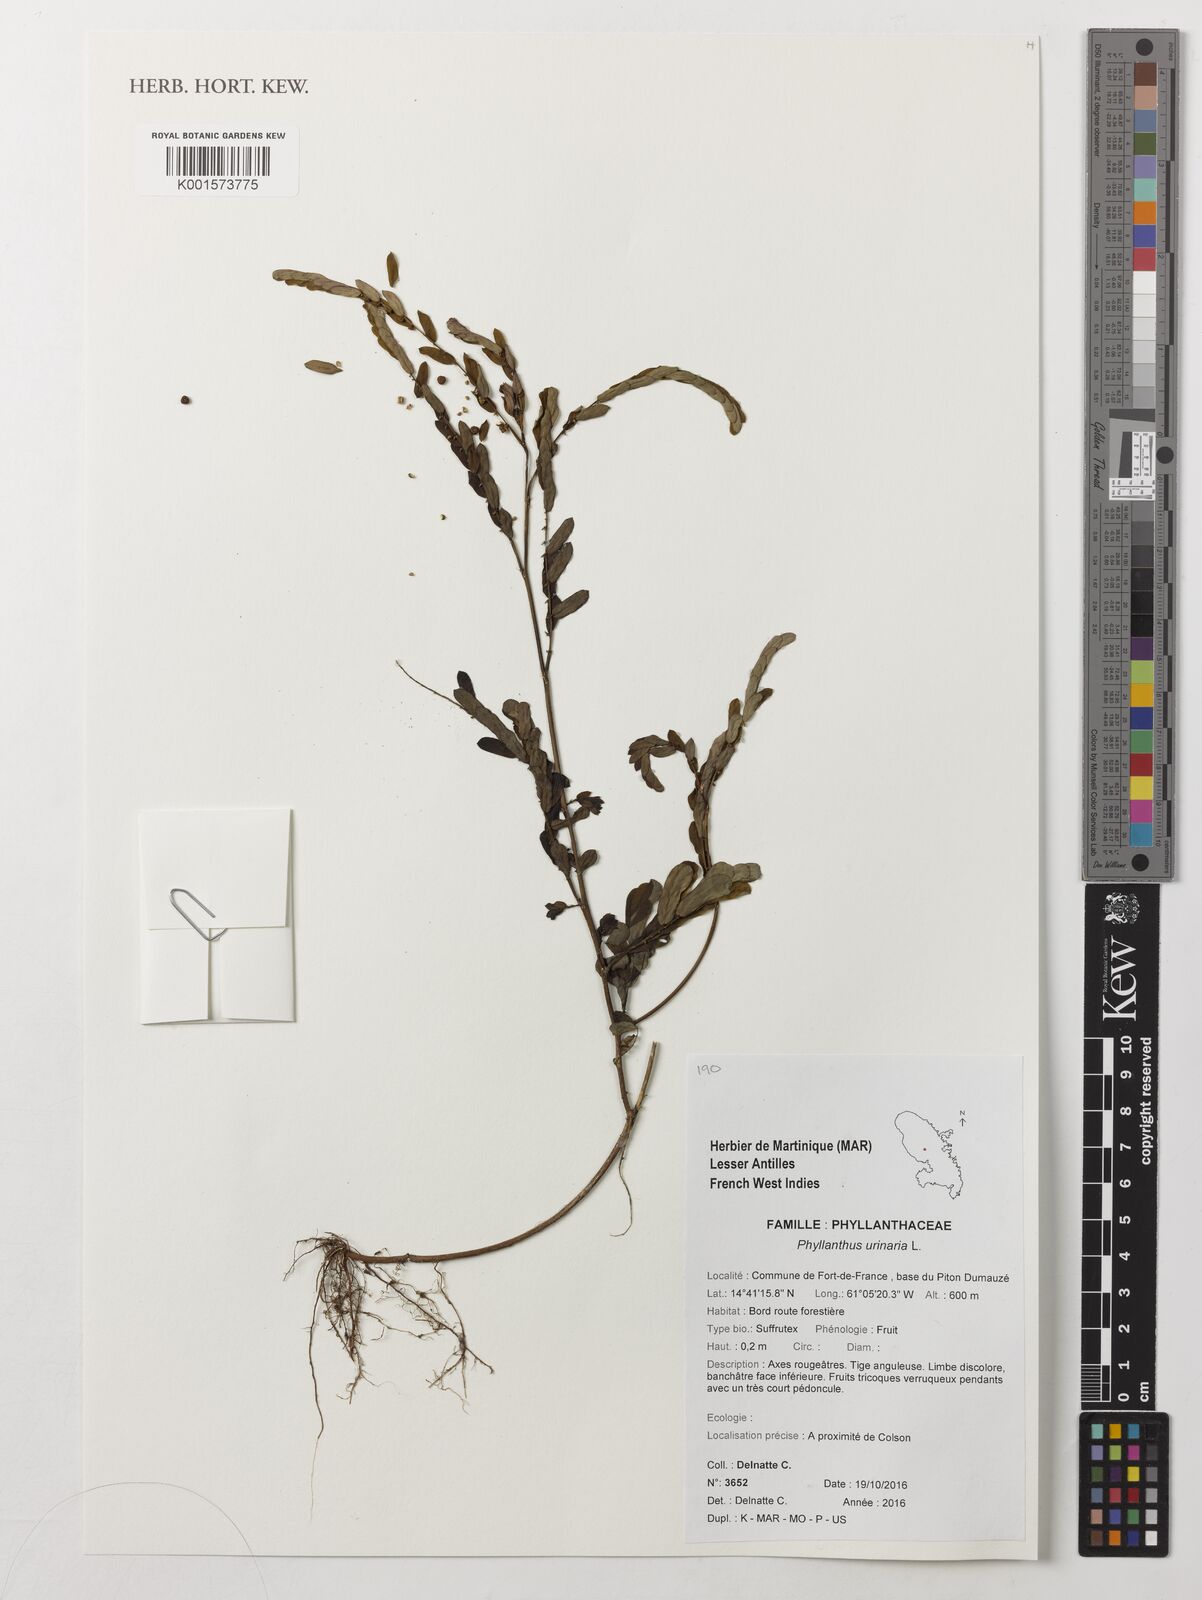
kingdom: Plantae
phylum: Tracheophyta
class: Magnoliopsida
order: Malpighiales
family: Phyllanthaceae
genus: Phyllanthus
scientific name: Phyllanthus urinaria
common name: Chamber bitter
